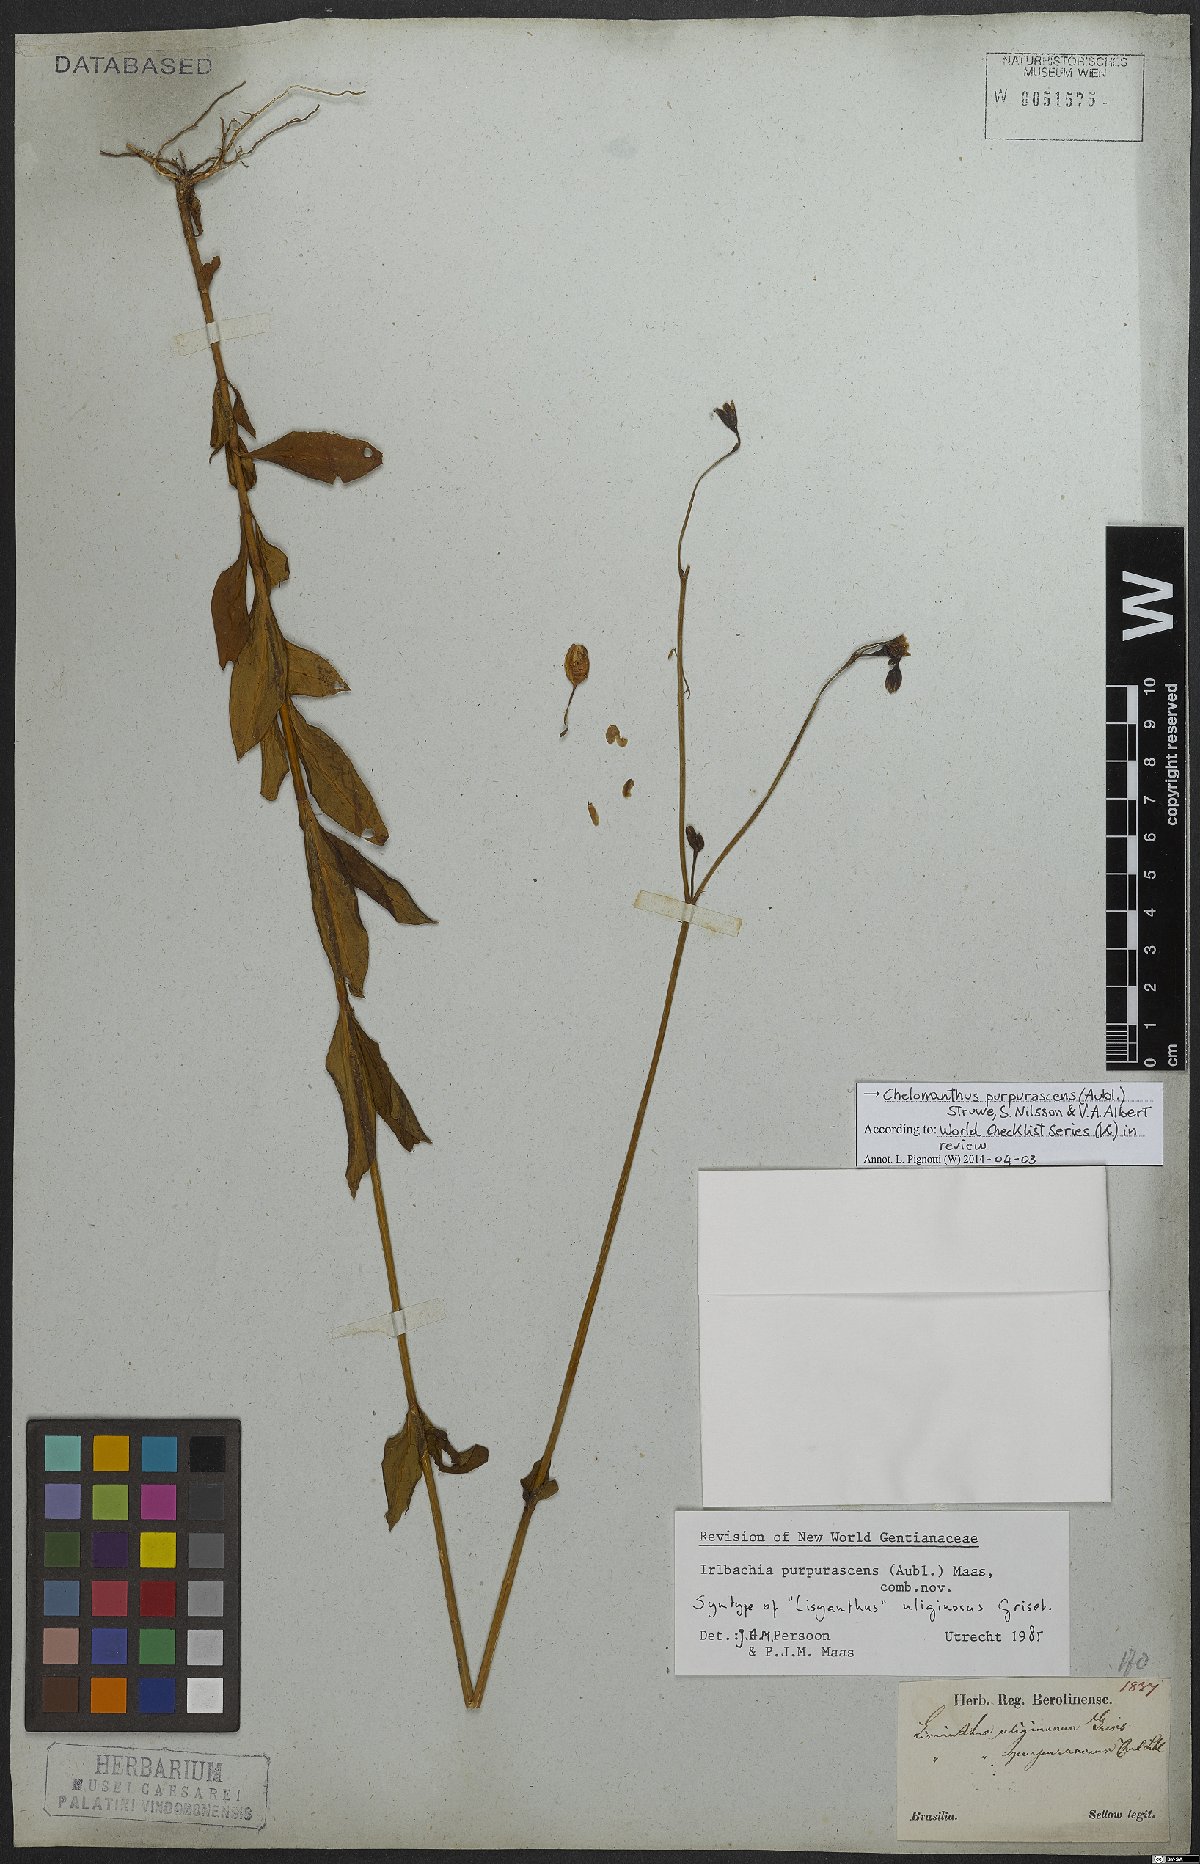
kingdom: Plantae
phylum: Tracheophyta
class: Magnoliopsida
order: Gentianales
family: Gentianaceae
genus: Chelonanthus
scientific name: Chelonanthus purpurascens
